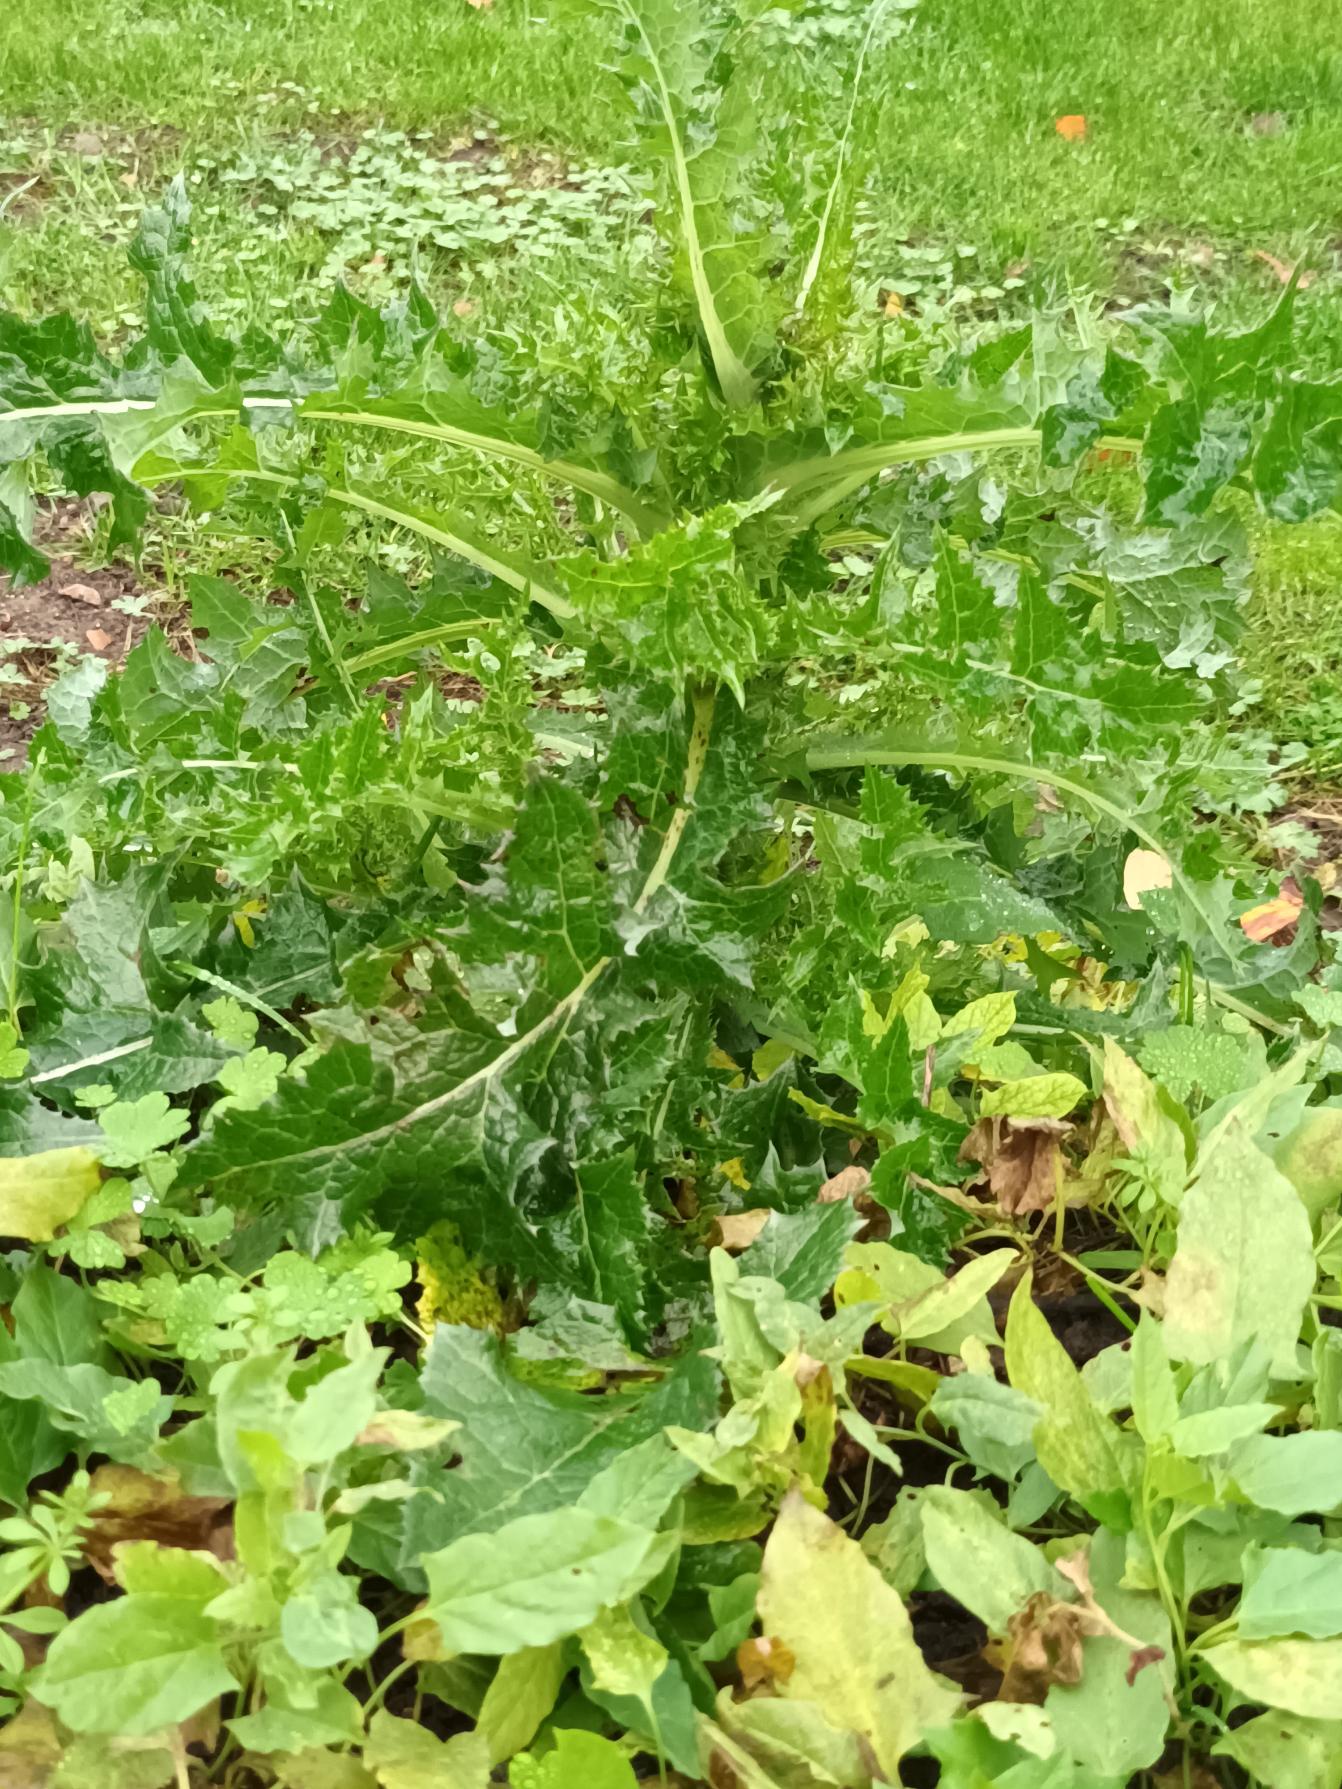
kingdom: Plantae
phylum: Tracheophyta
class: Magnoliopsida
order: Asterales
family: Asteraceae
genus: Sonchus
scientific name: Sonchus asper
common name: Ru svinemælk
